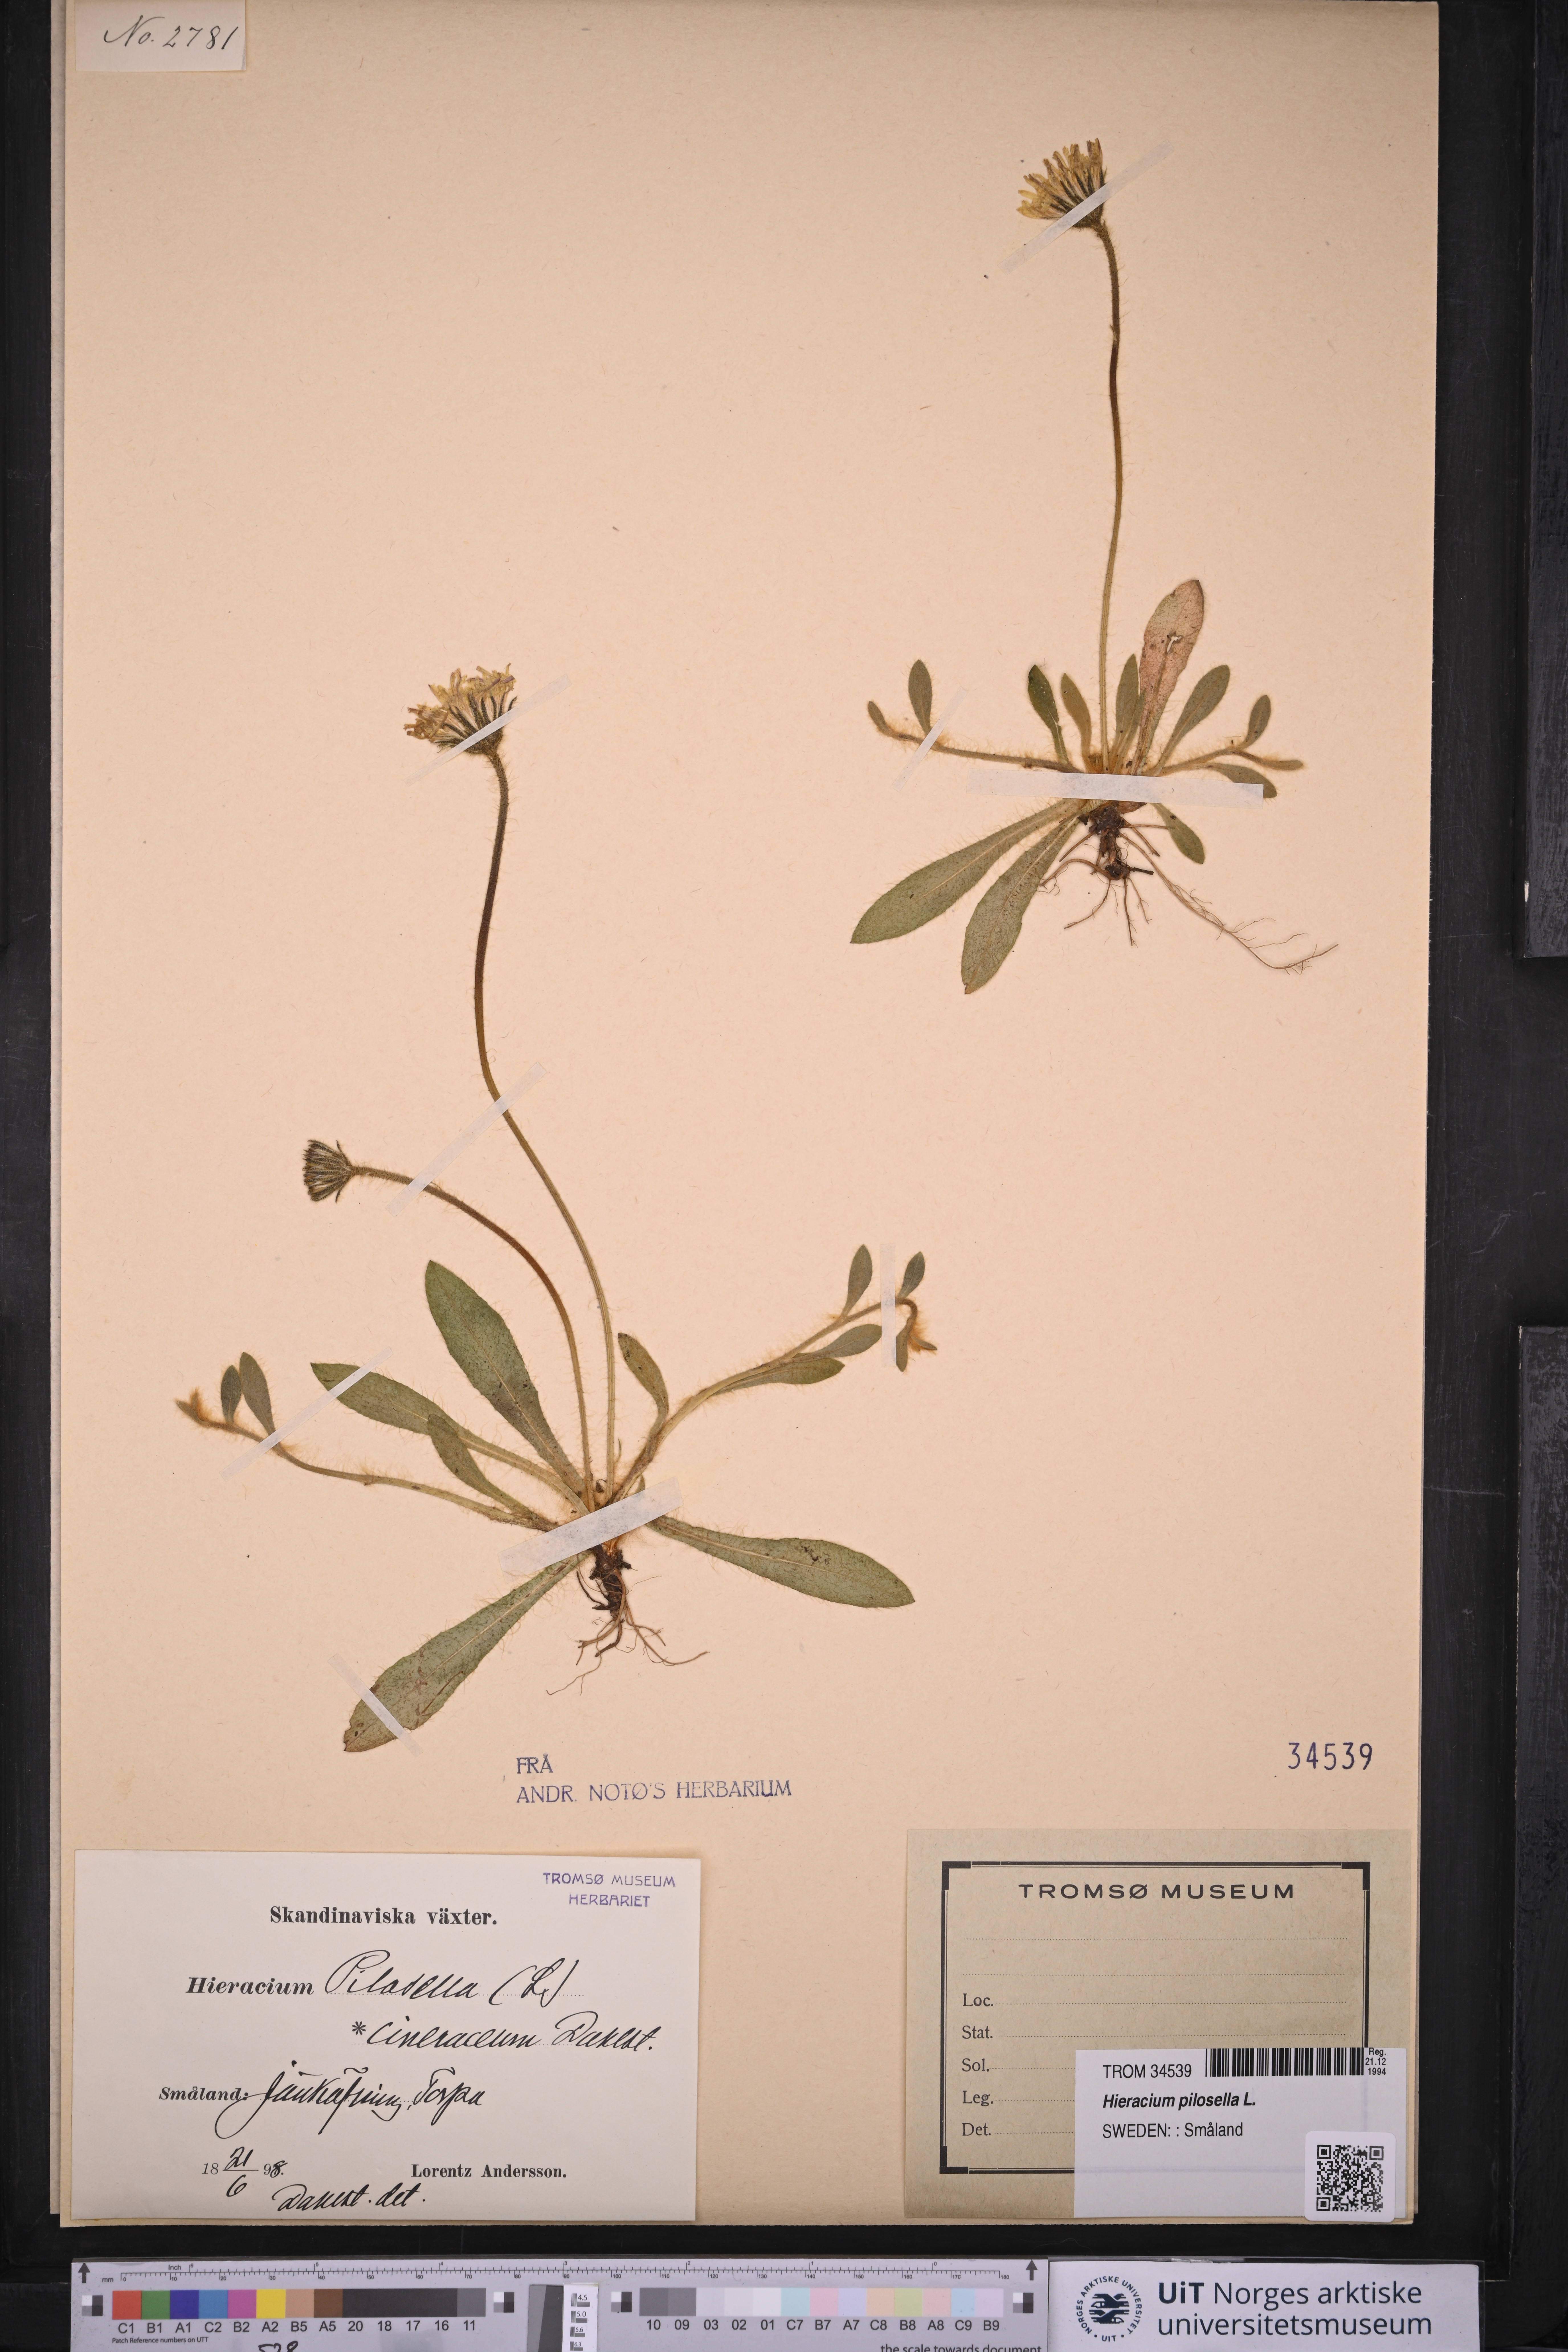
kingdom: Plantae
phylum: Tracheophyta
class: Magnoliopsida
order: Asterales
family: Asteraceae
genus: Pilosella
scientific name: Pilosella officinarum
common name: Mouse-ear hawkweed
